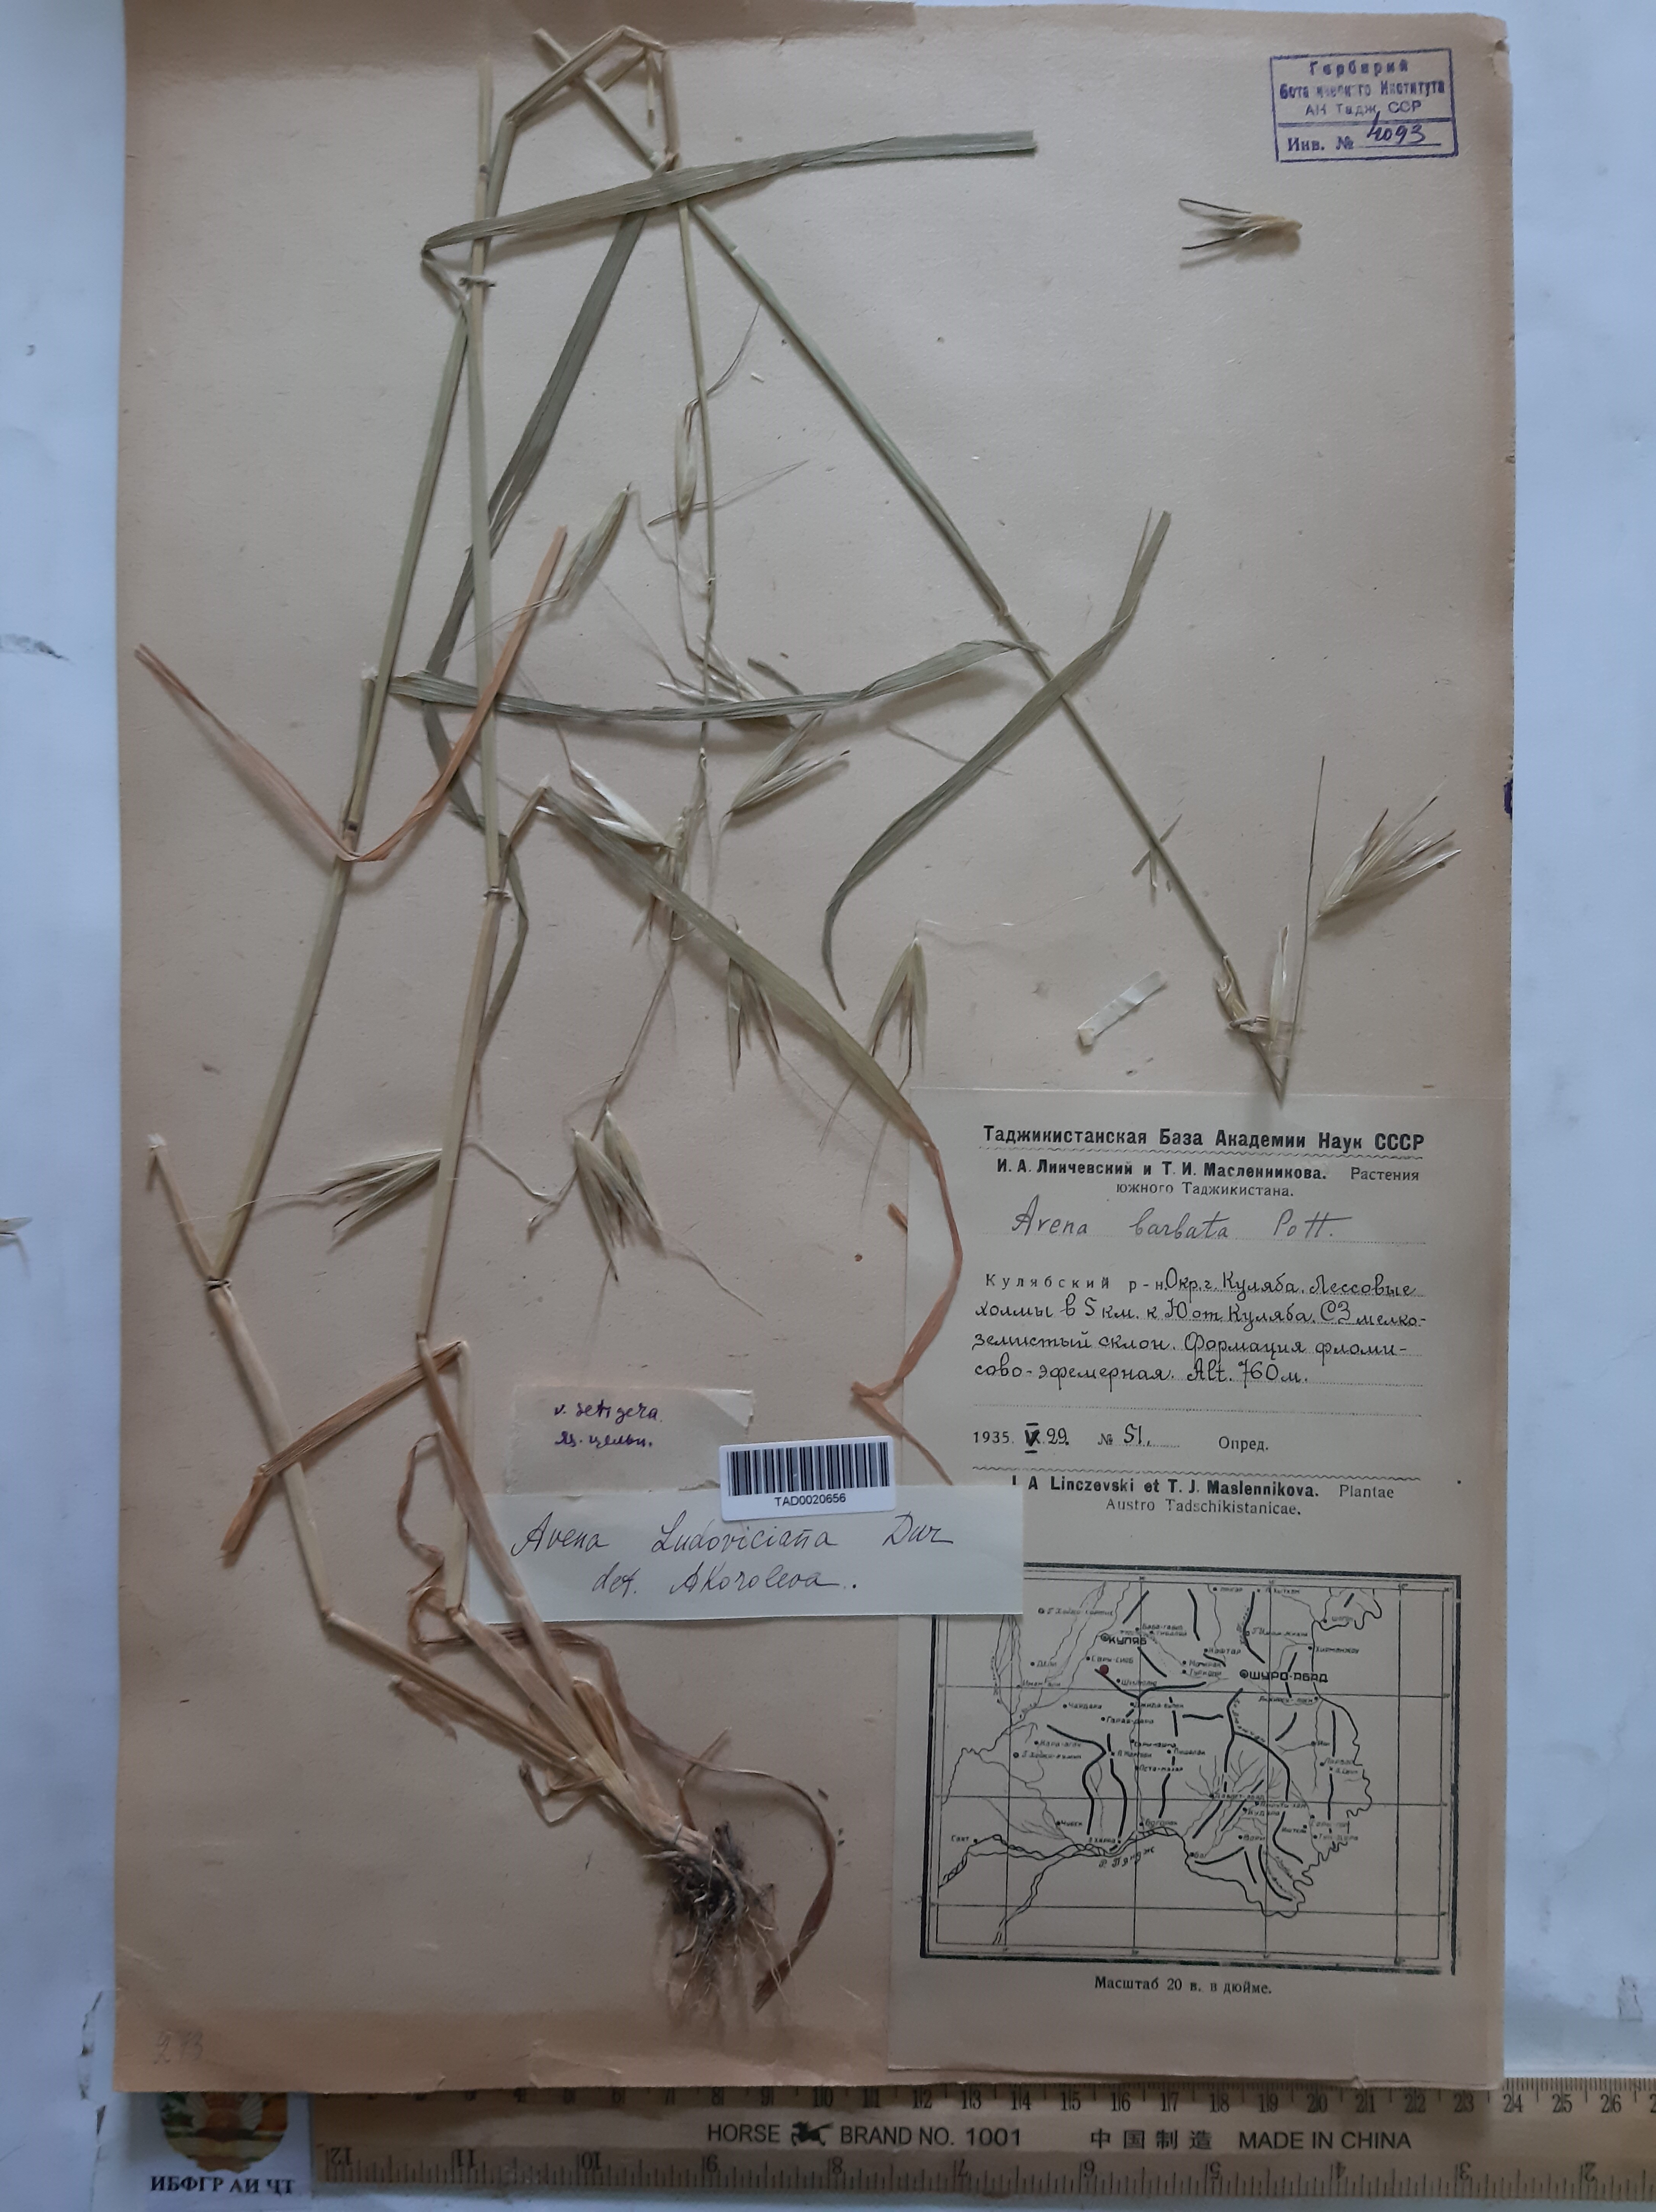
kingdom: Plantae
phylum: Tracheophyta
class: Liliopsida
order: Poales
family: Poaceae
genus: Avena
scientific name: Avena sterilis
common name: Animated oat
